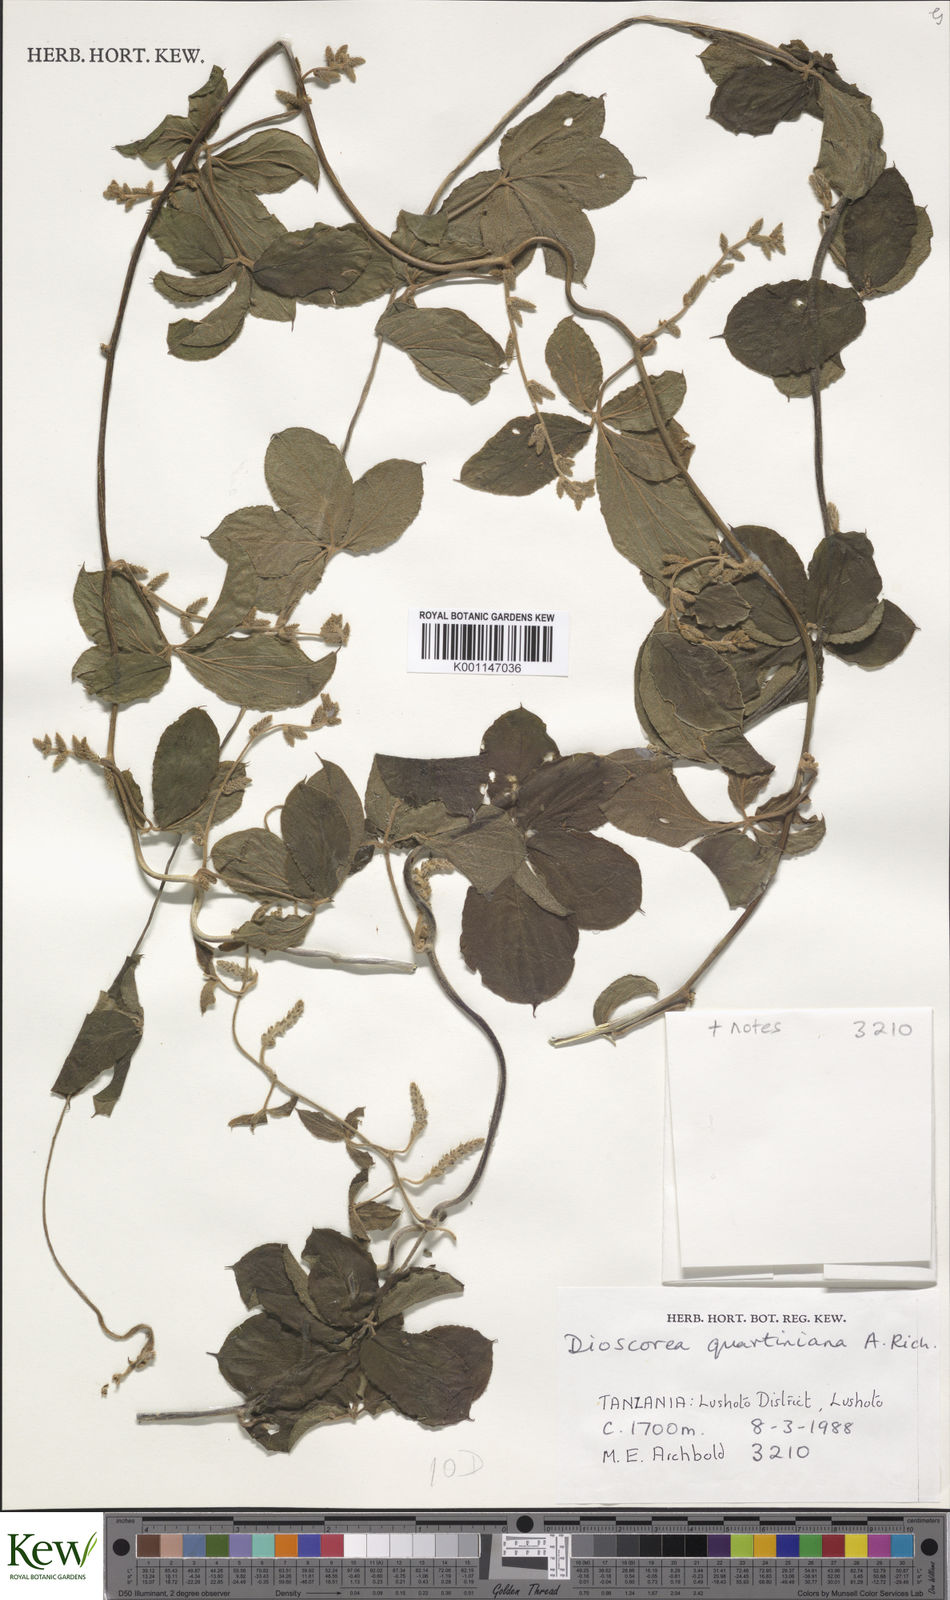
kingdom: Plantae
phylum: Tracheophyta
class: Liliopsida
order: Dioscoreales
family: Dioscoreaceae
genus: Dioscorea
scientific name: Dioscorea quartiniana
